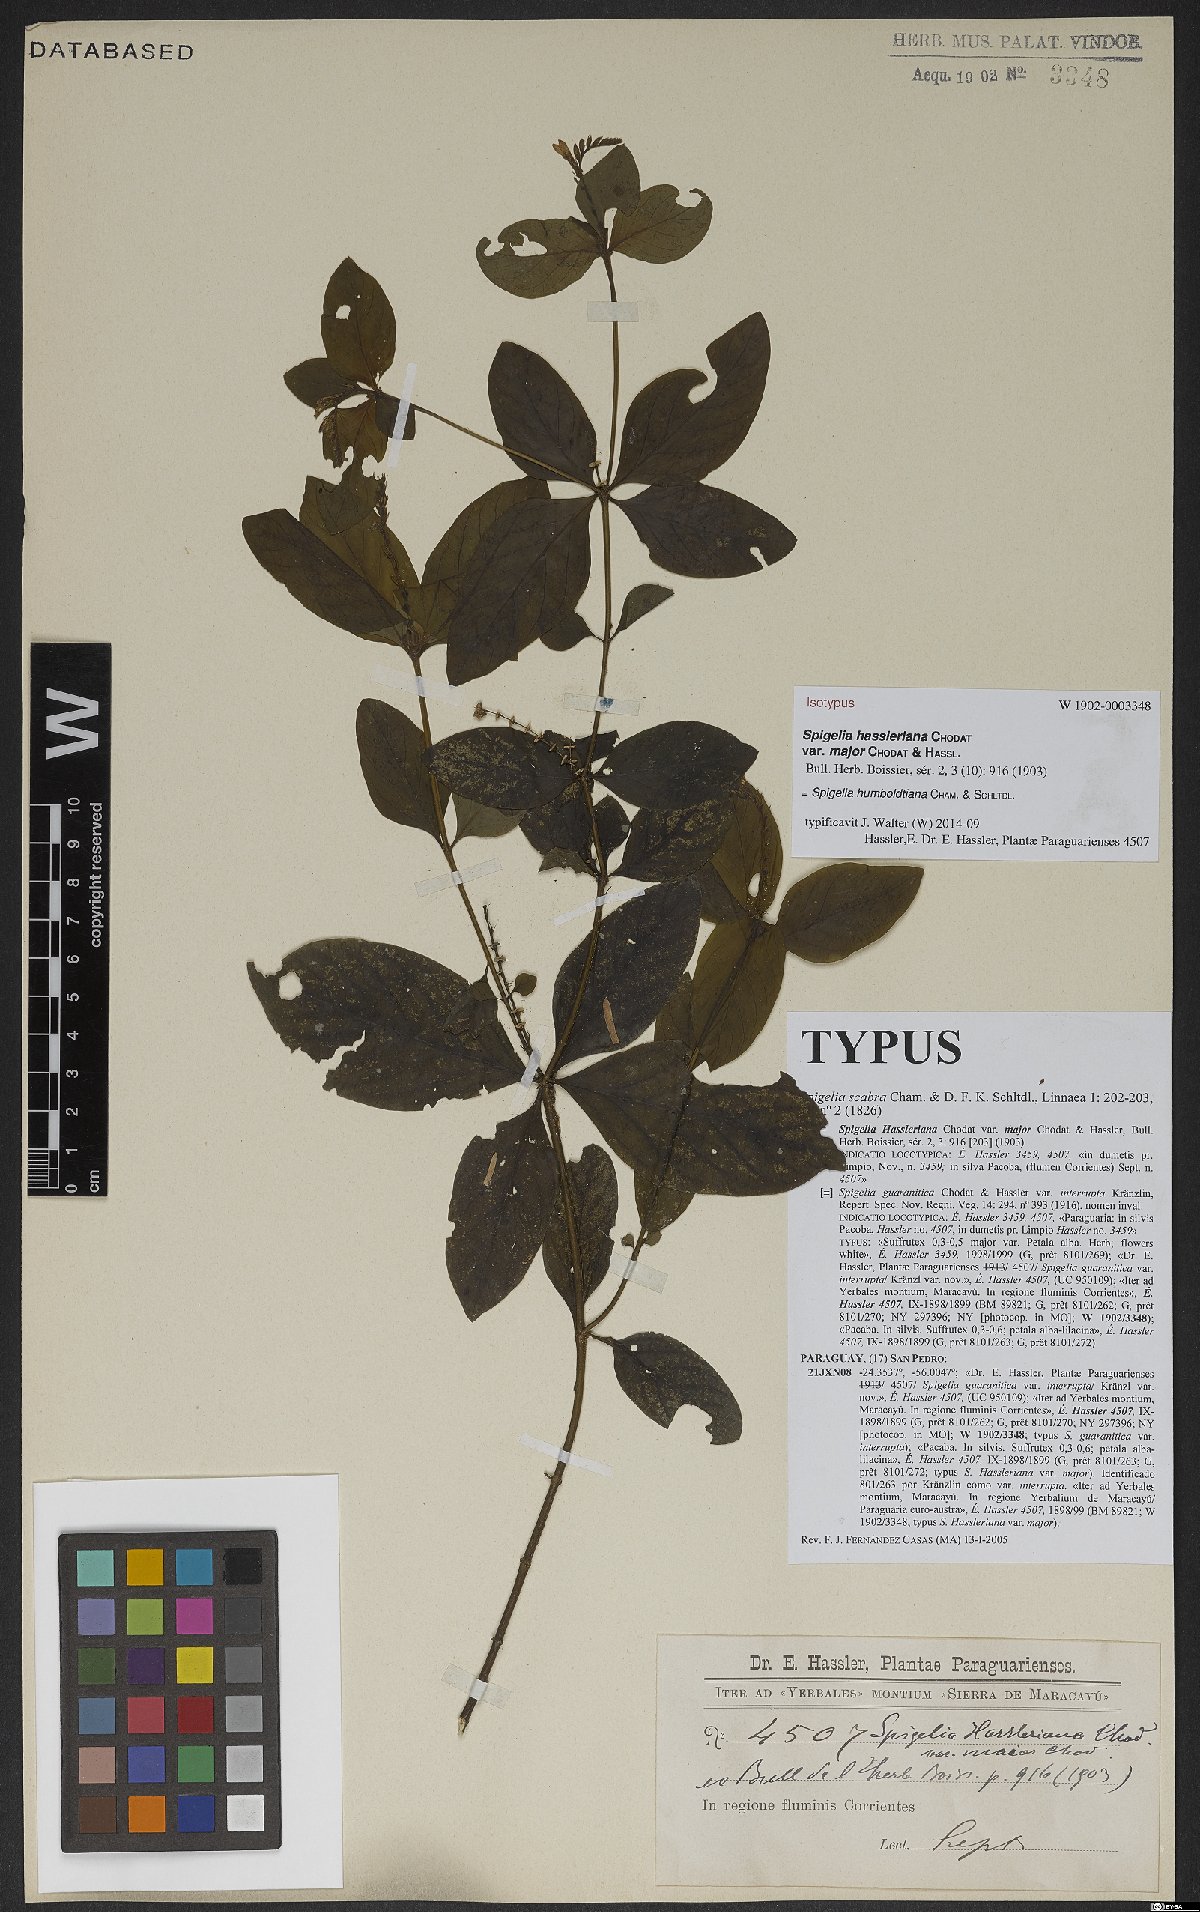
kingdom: Plantae
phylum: Tracheophyta
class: Magnoliopsida
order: Gentianales
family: Loganiaceae
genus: Spigelia
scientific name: Spigelia humboldtiana
